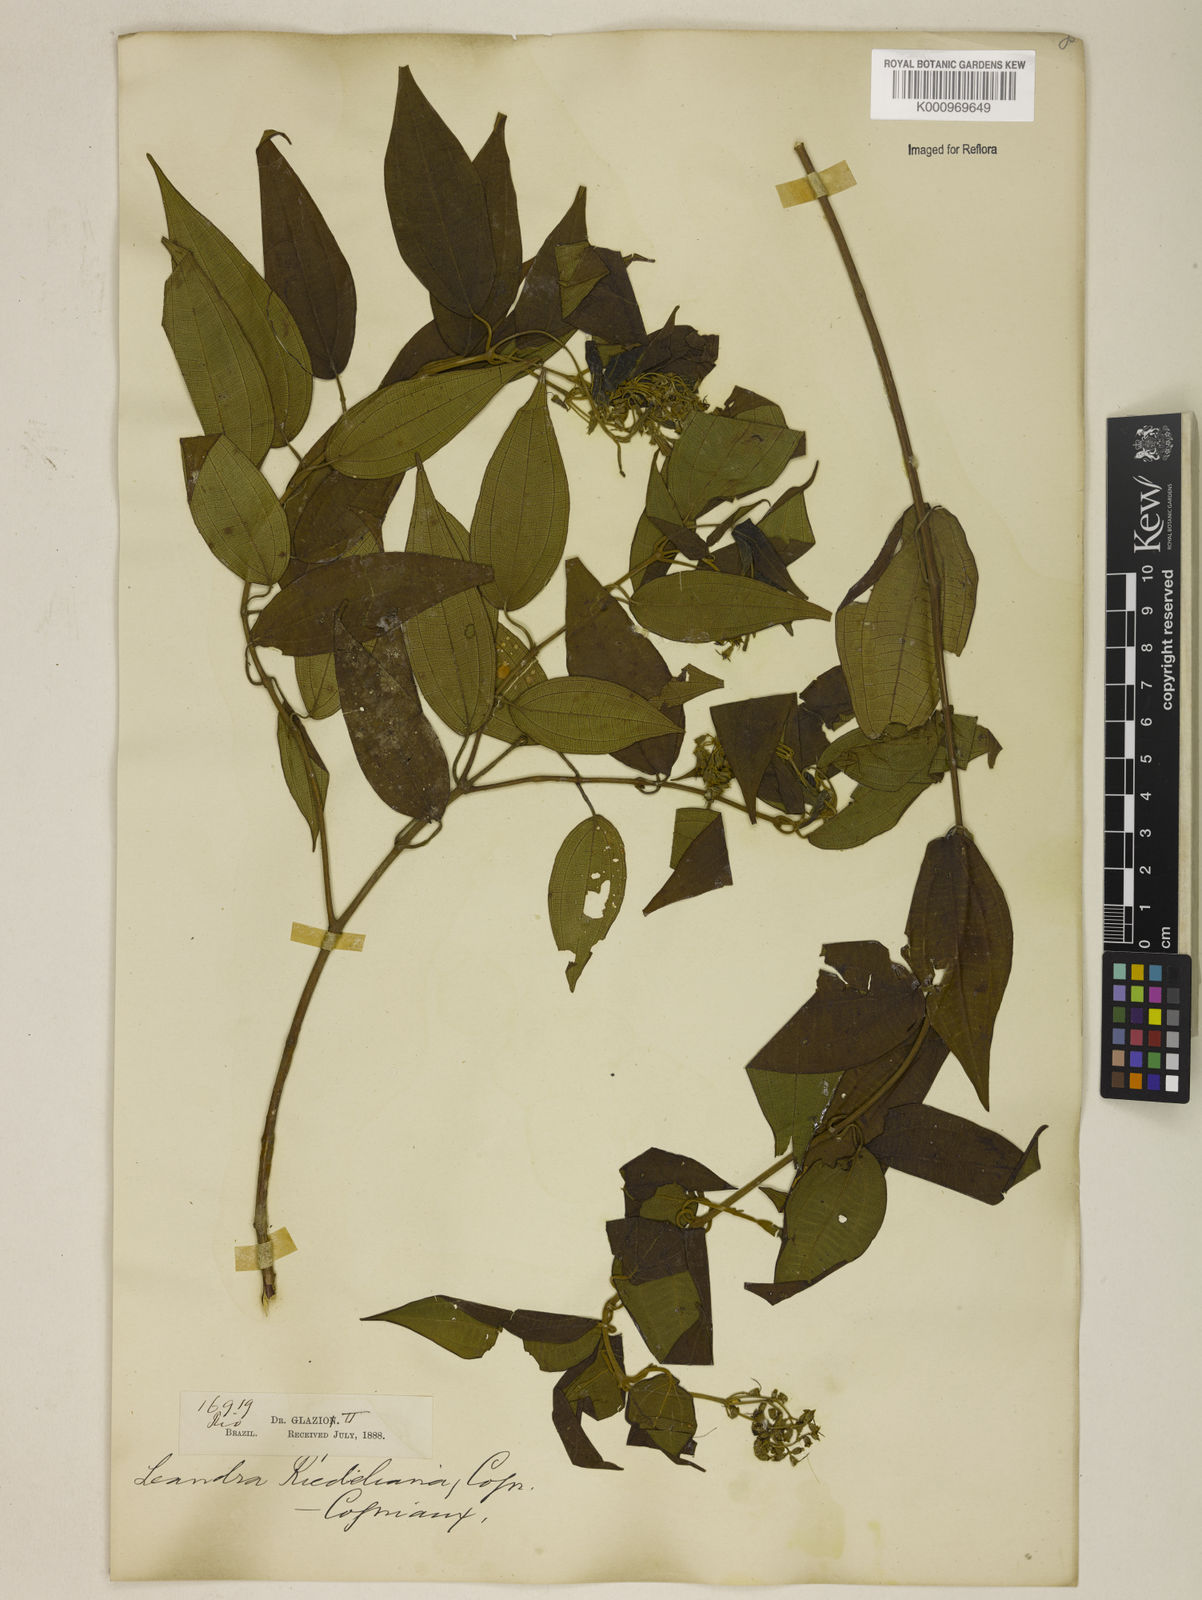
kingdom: Plantae
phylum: Tracheophyta
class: Magnoliopsida
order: Myrtales
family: Melastomataceae
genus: Miconia
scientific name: Miconia riedeliana
